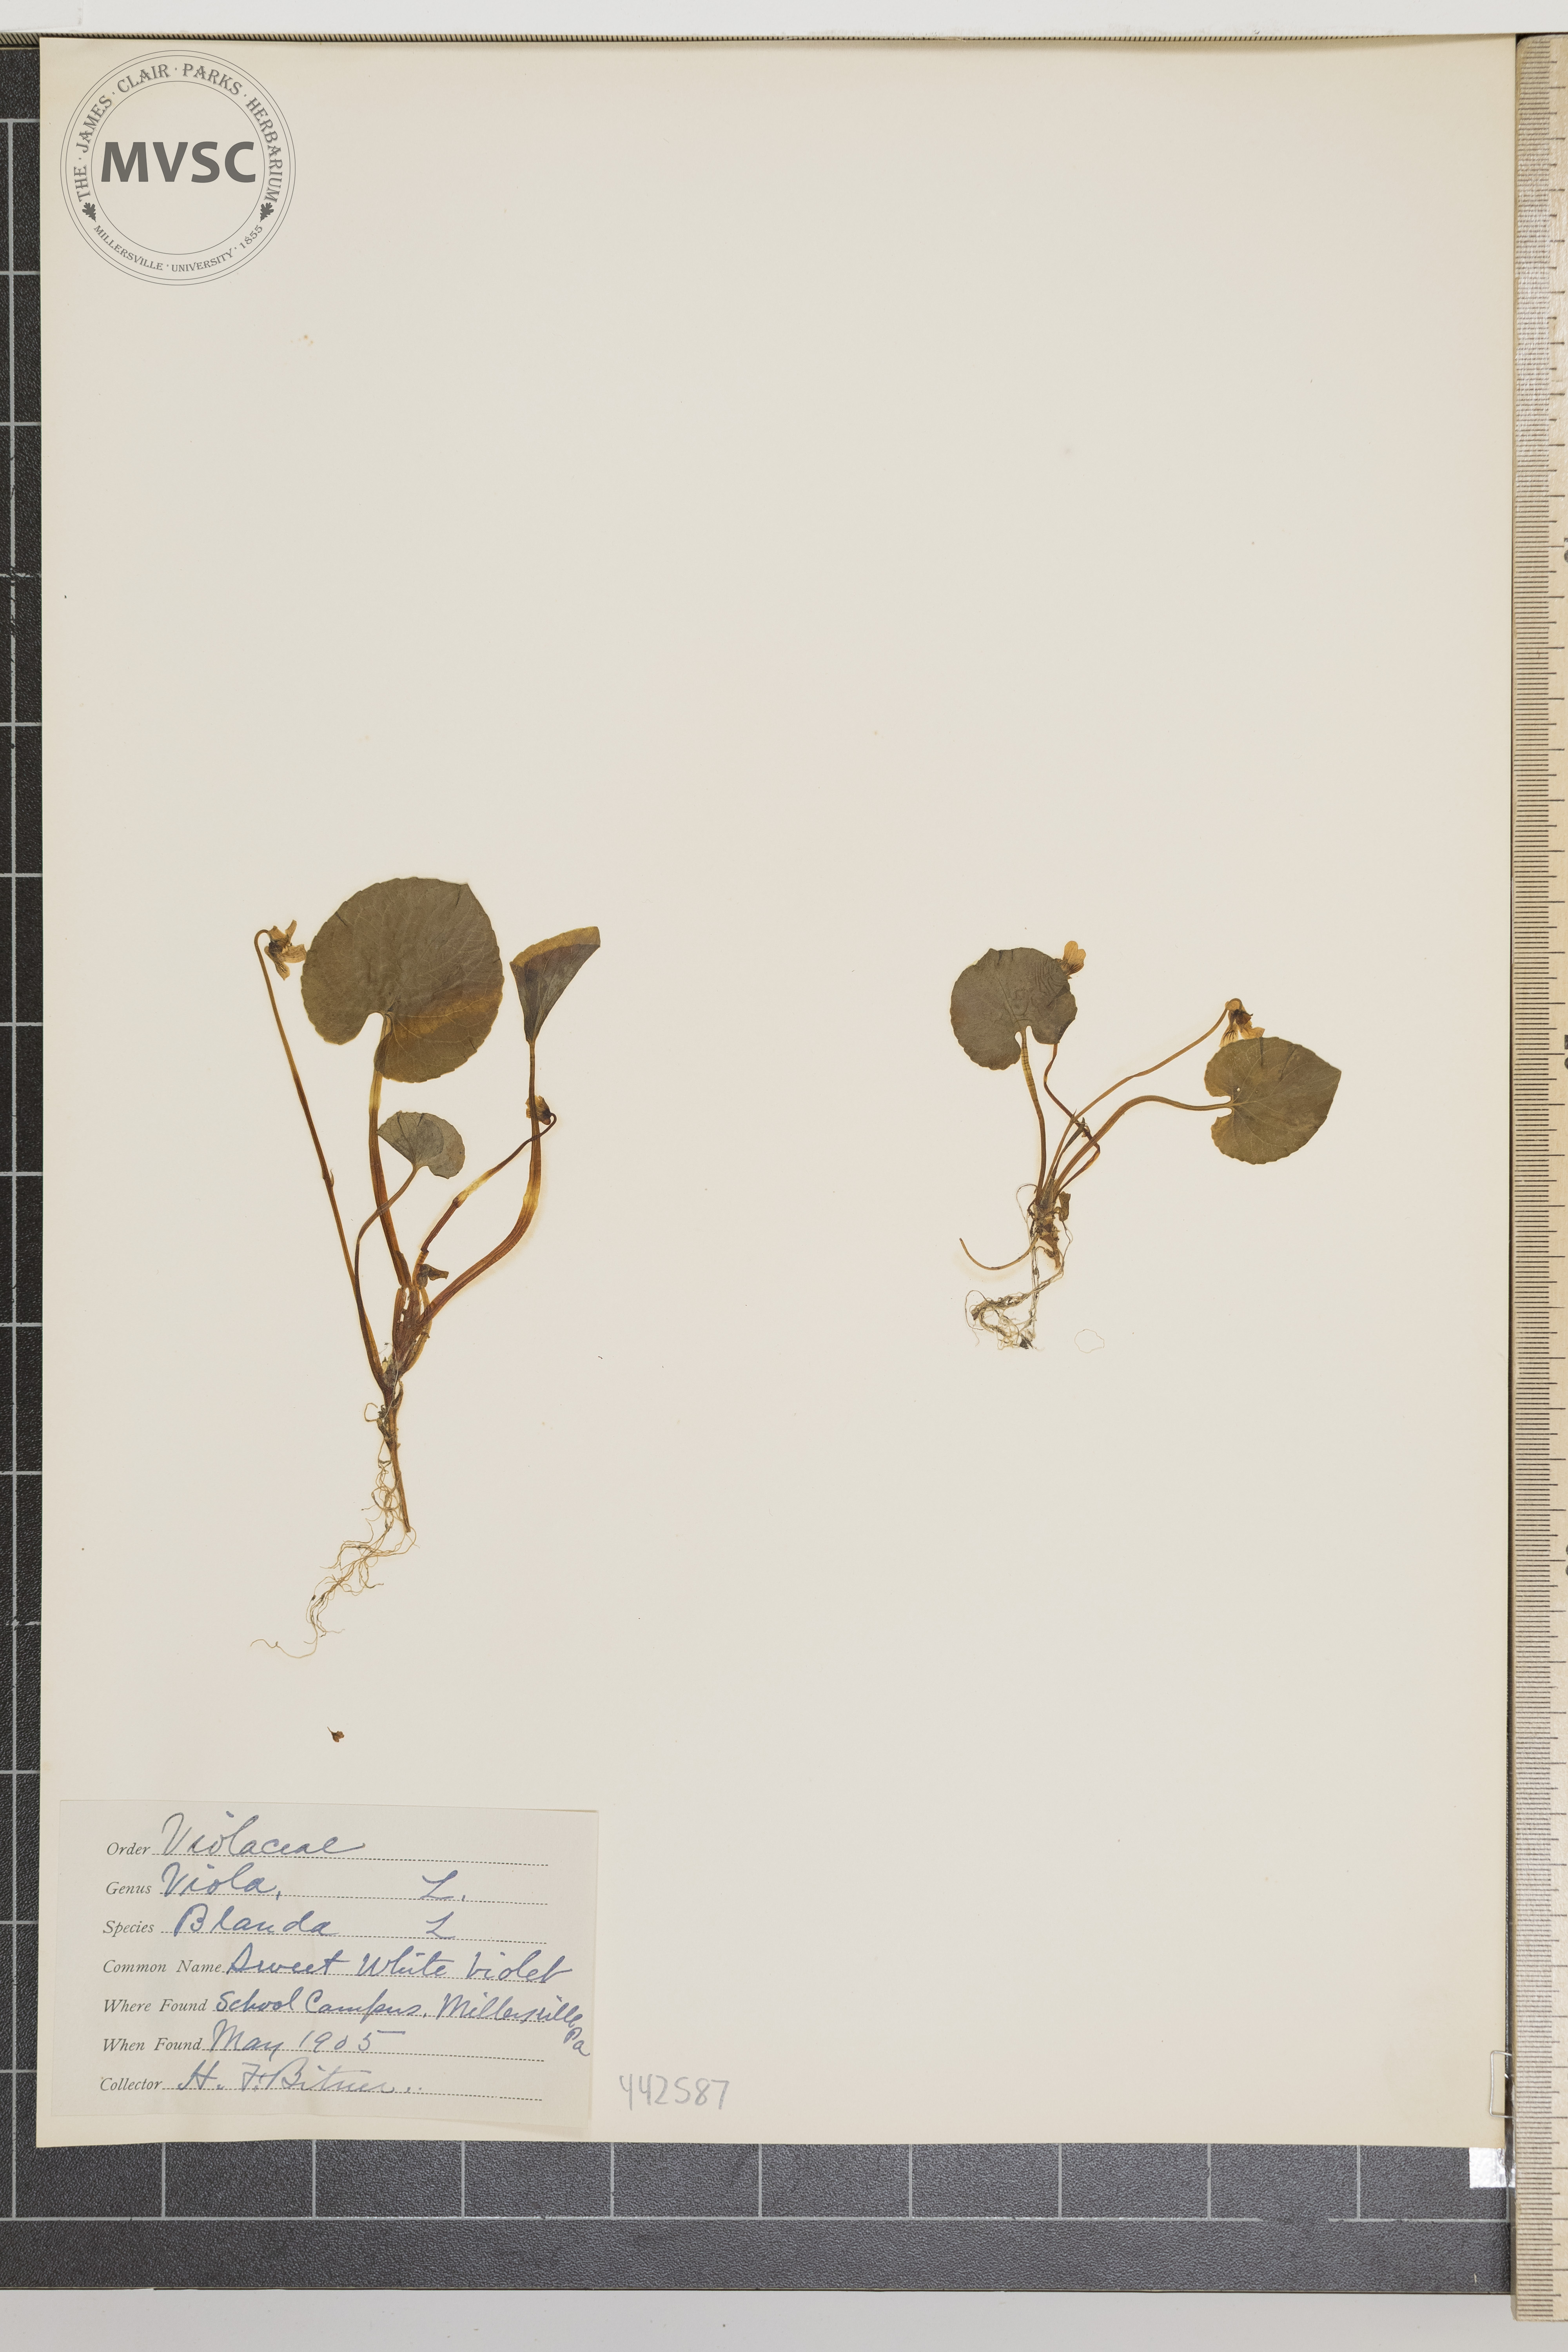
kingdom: Plantae
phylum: Tracheophyta
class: Magnoliopsida
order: Malpighiales
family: Violaceae
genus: Viola
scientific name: Viola blanda
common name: Sweet white violet
